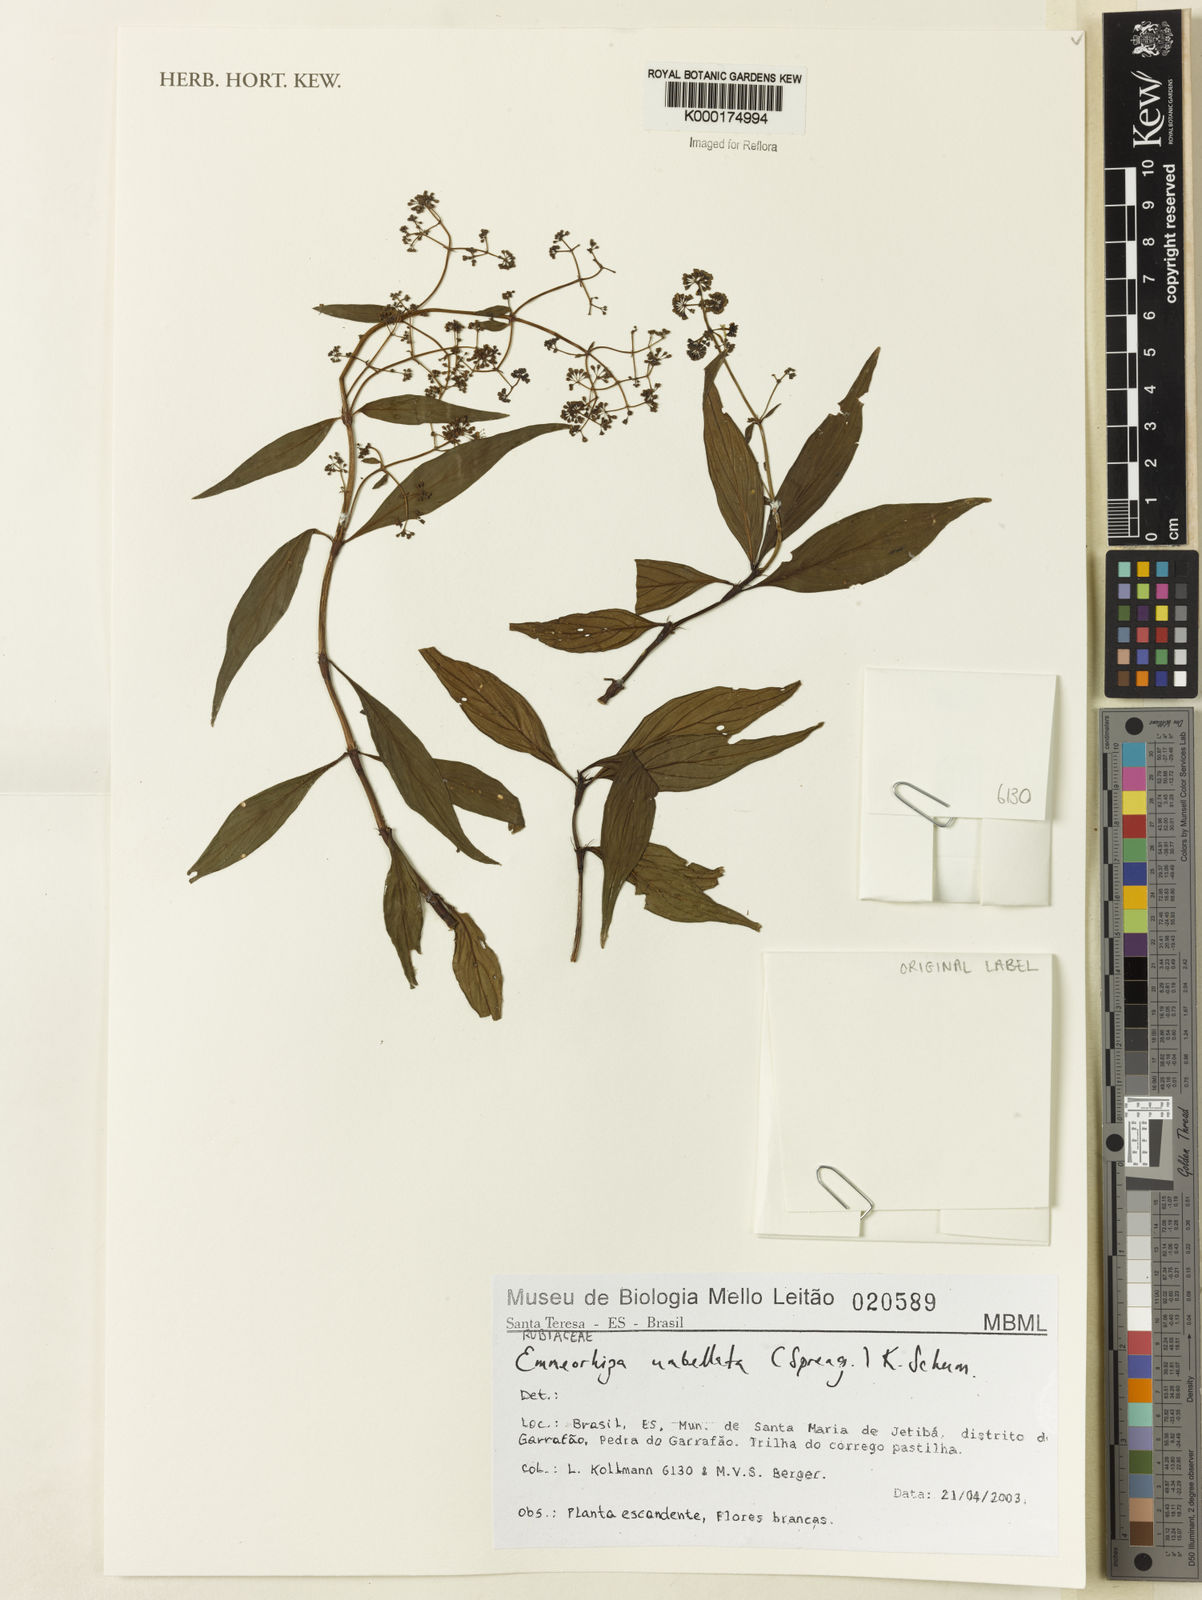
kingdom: Plantae
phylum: Tracheophyta
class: Magnoliopsida
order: Gentianales
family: Rubiaceae
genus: Emmeorhiza
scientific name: Emmeorhiza umbellata
